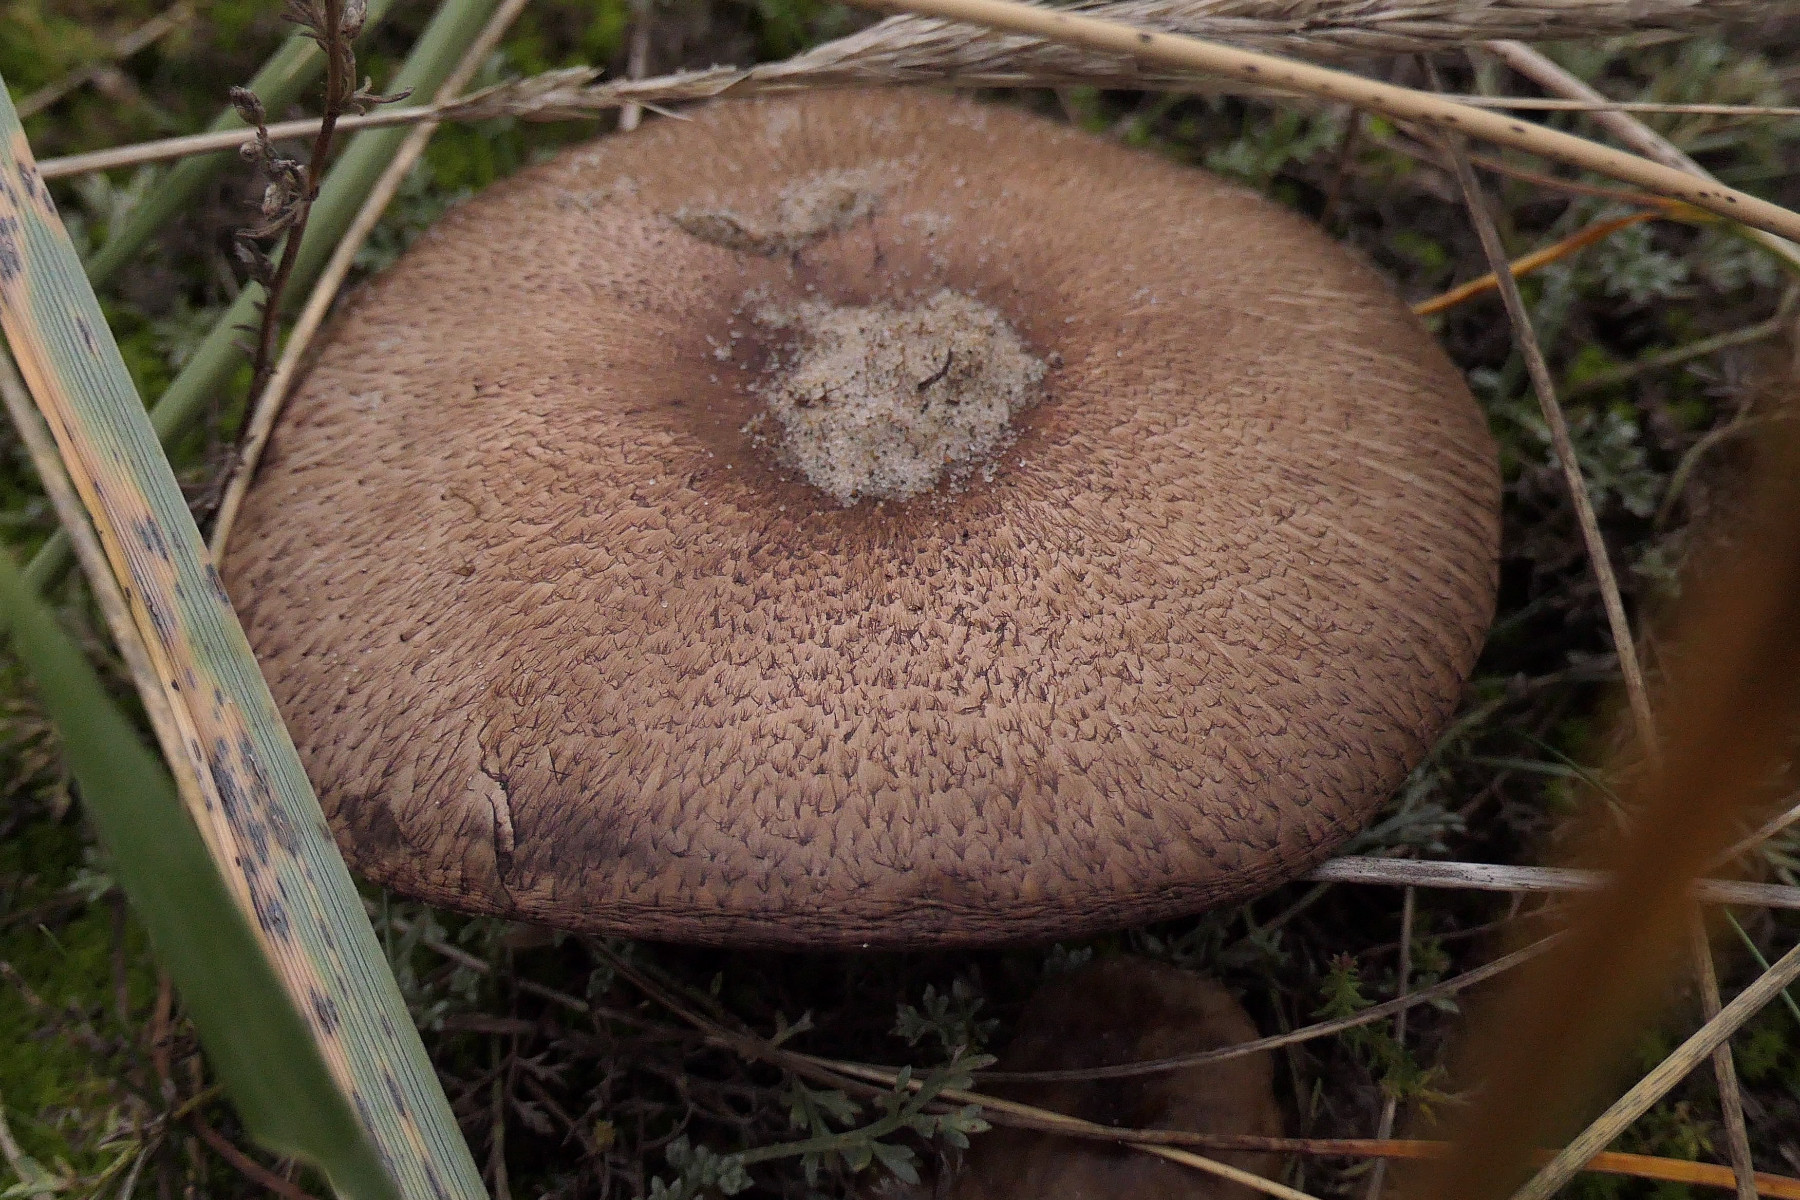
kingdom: Fungi
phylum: Basidiomycota
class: Agaricomycetes
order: Agaricales
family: Agaricaceae
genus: Agaricus
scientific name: Agaricus impudicus
